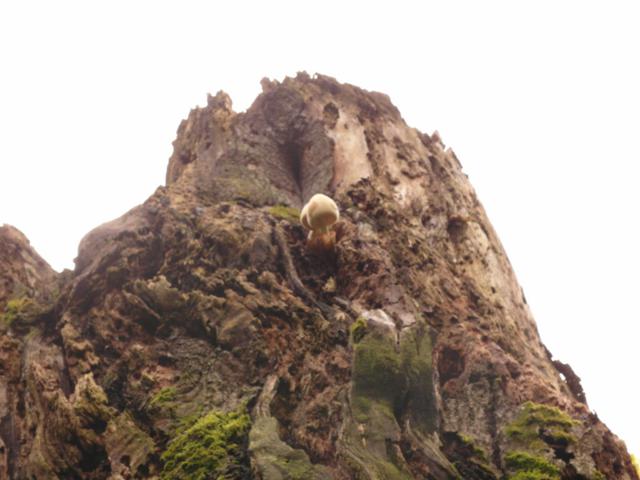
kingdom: Fungi
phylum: Basidiomycota
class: Agaricomycetes
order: Agaricales
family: Pluteaceae
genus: Volvariella
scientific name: Volvariella bombycina
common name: silkehåret posesvamp
